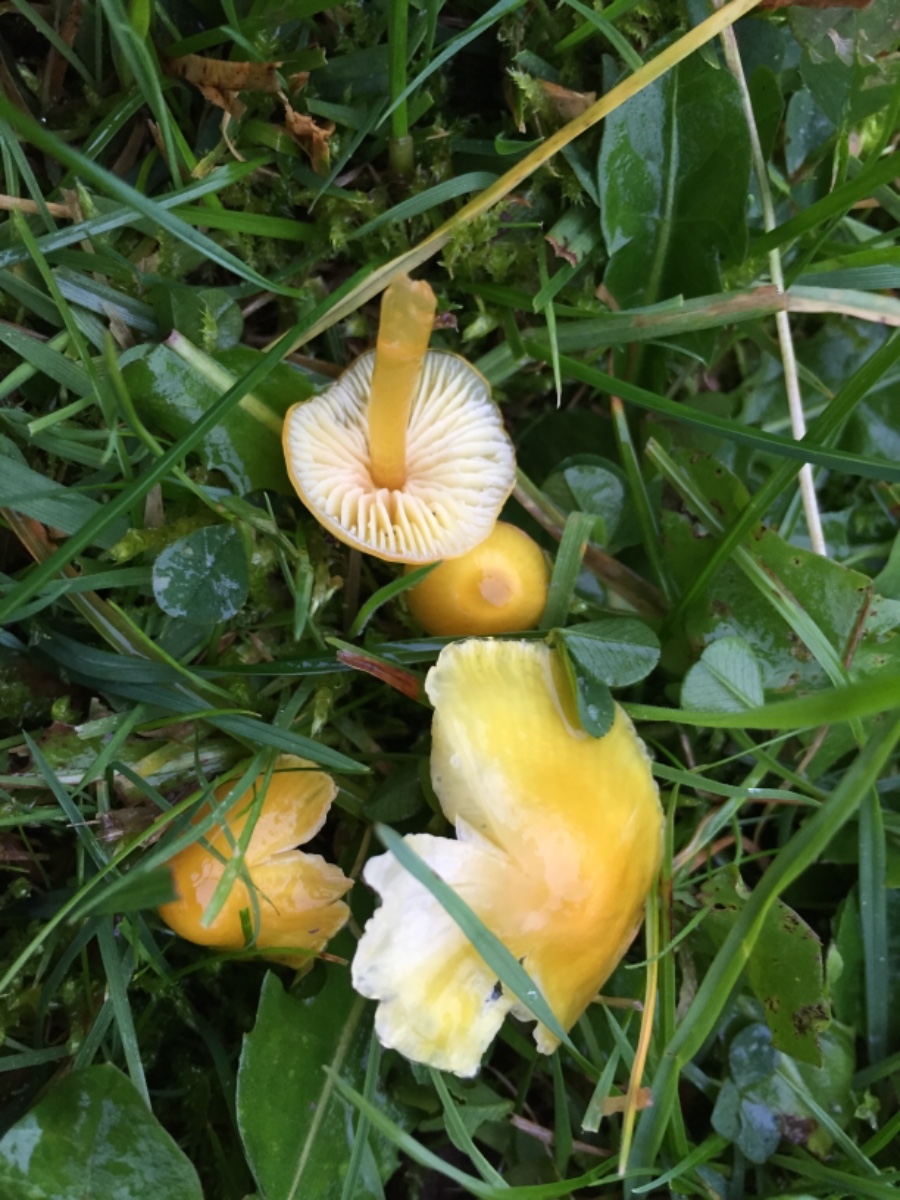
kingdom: Fungi
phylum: Basidiomycota
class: Agaricomycetes
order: Agaricales
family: Hygrophoraceae
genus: Hygrocybe
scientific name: Hygrocybe glutinipes
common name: slimstokket vokshat
